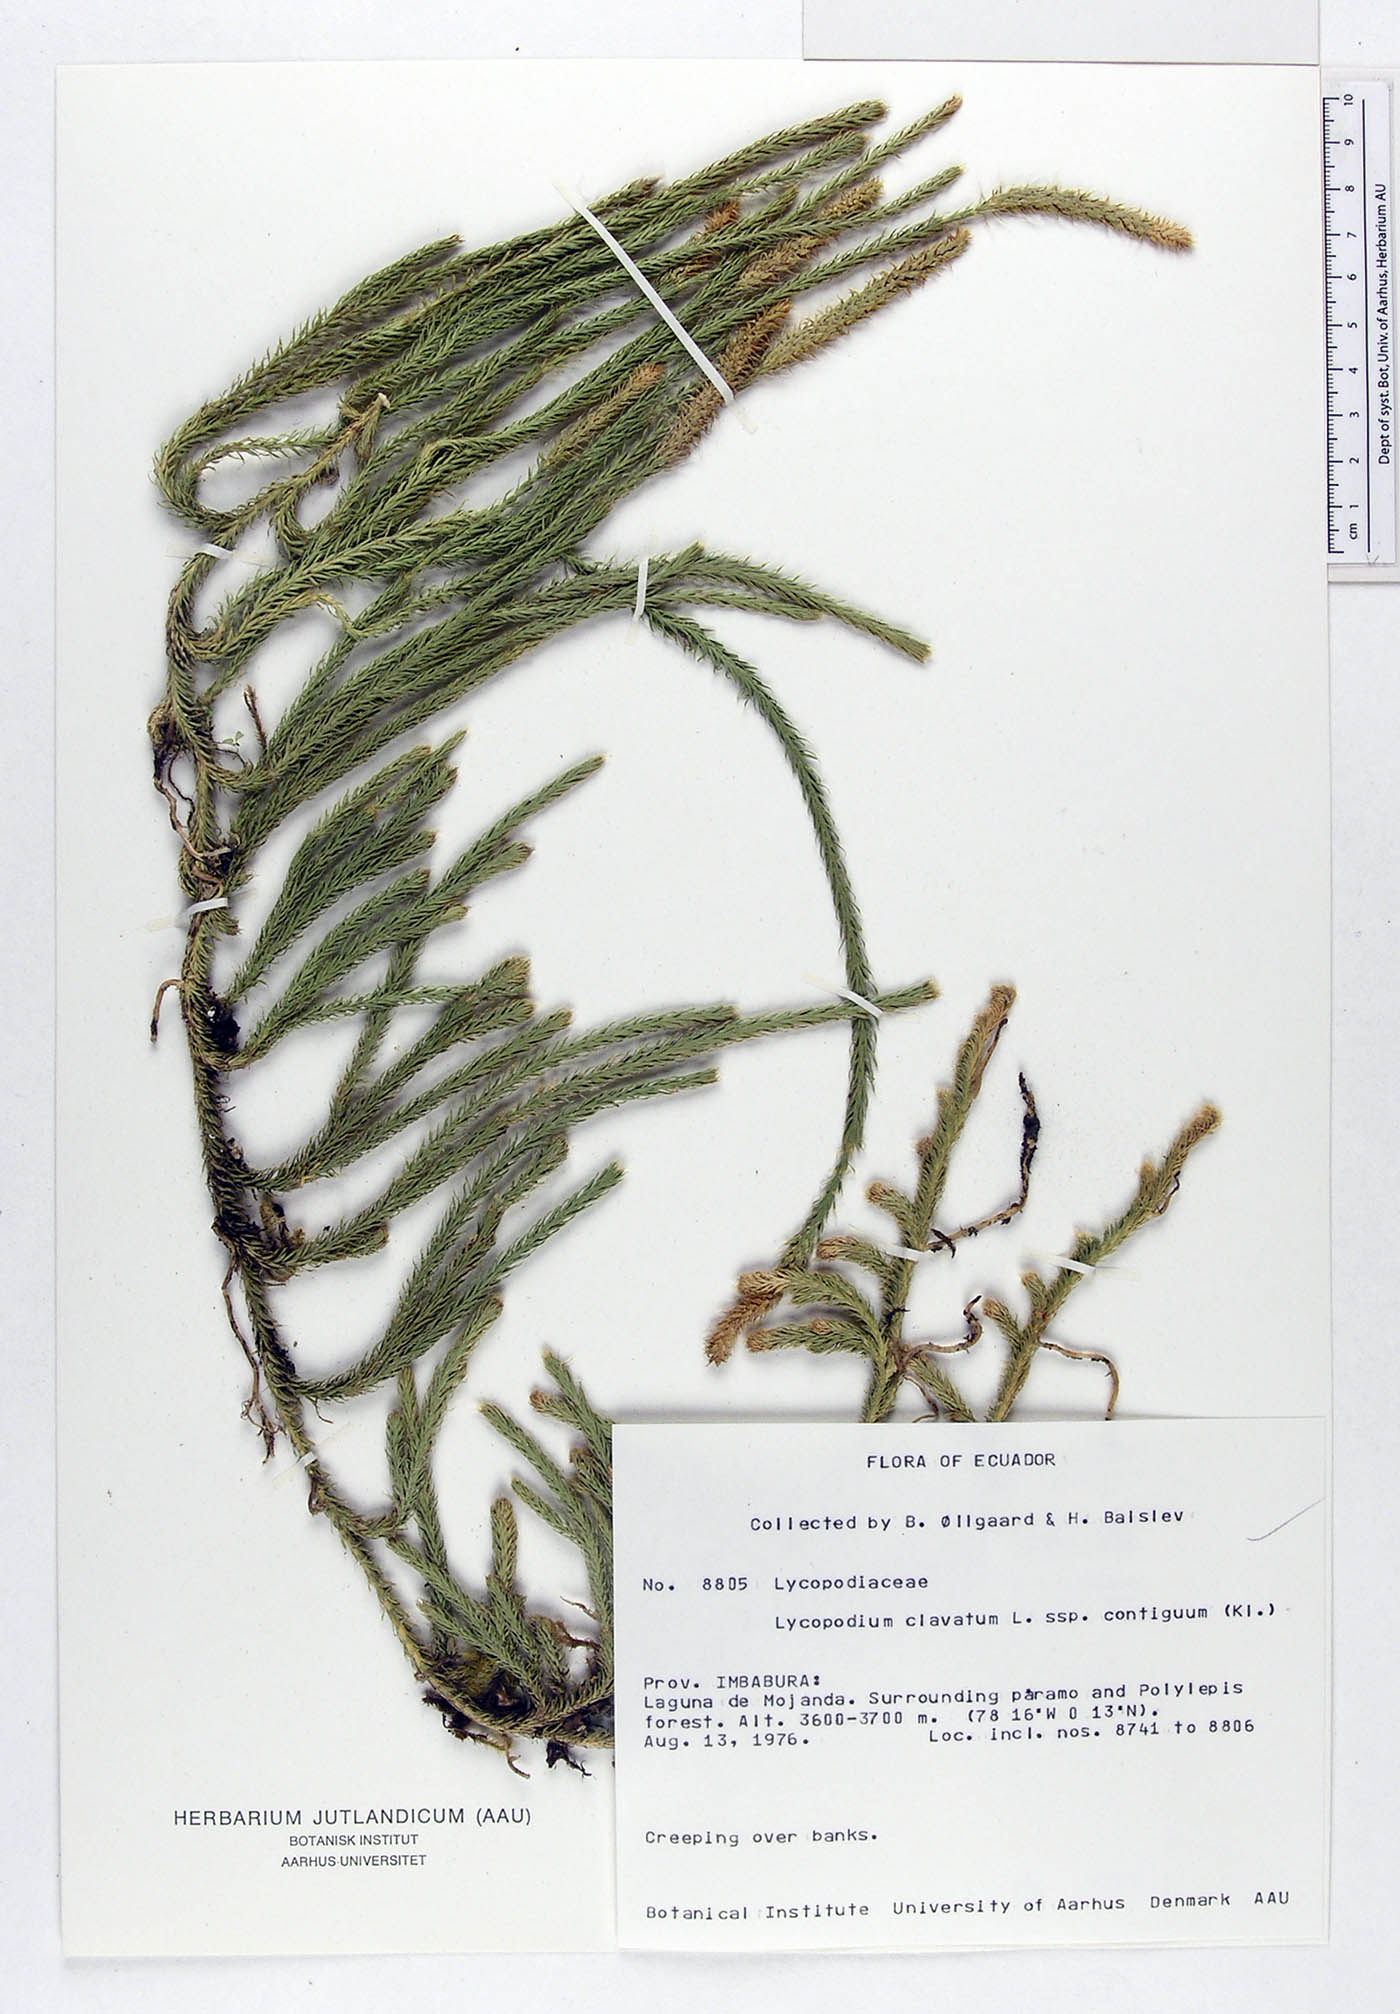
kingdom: Plantae
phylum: Tracheophyta
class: Lycopodiopsida
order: Lycopodiales
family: Lycopodiaceae
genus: Lycopodium
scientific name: Lycopodium clavatum
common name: Stag's-horn clubmoss
